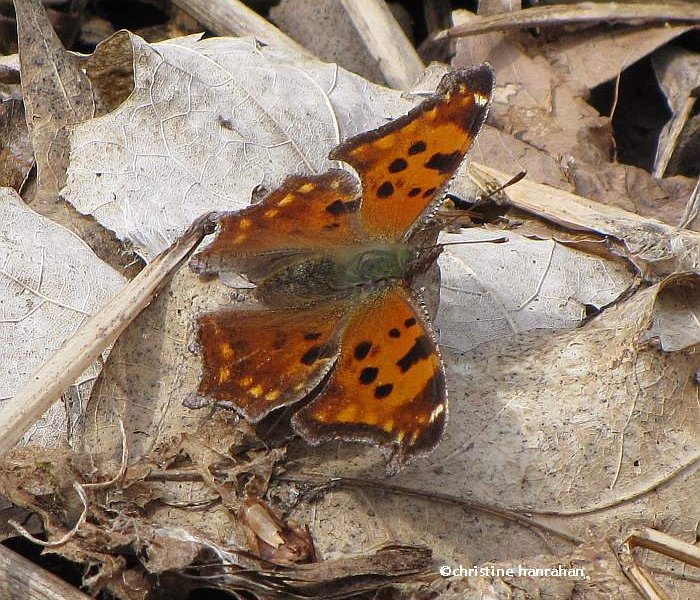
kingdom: Animalia
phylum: Arthropoda
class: Insecta
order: Lepidoptera
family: Nymphalidae
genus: Polygonia
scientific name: Polygonia comma
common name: Eastern Comma
